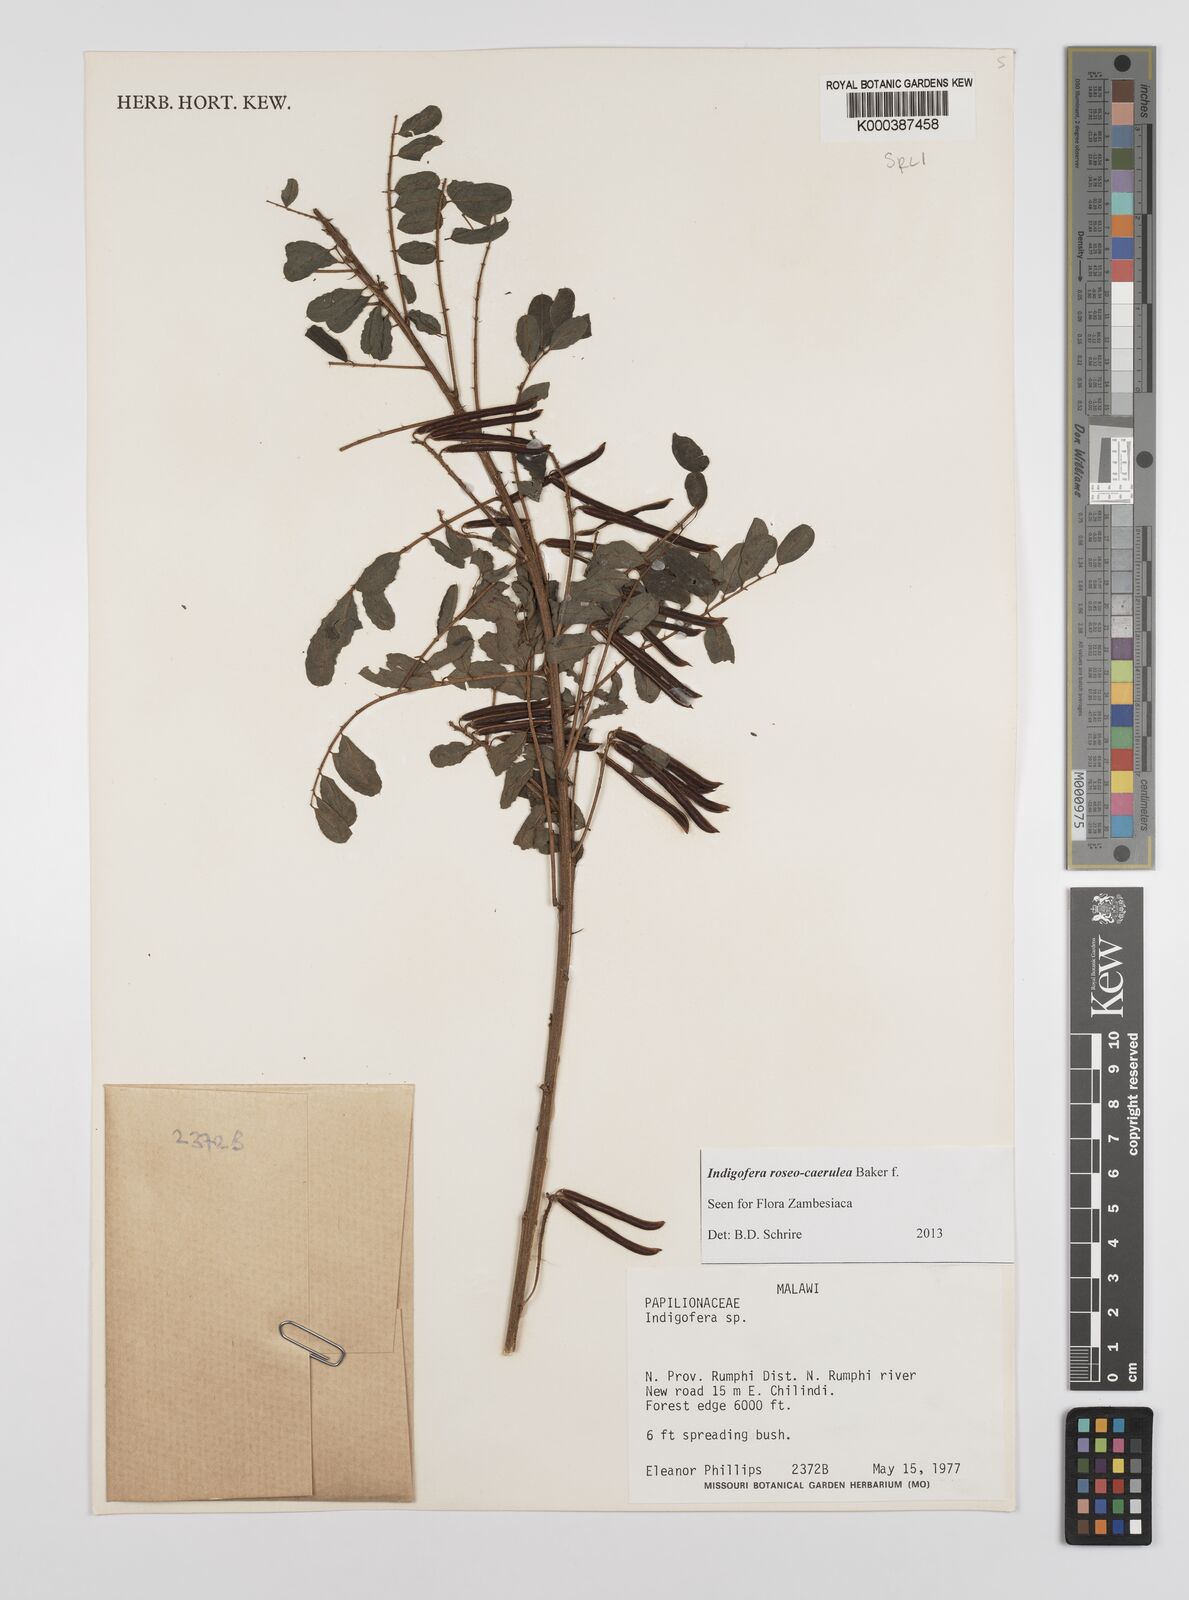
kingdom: Plantae
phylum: Tracheophyta
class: Magnoliopsida
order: Fabales
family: Fabaceae
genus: Indigofera
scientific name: Indigofera roseocaerulea
